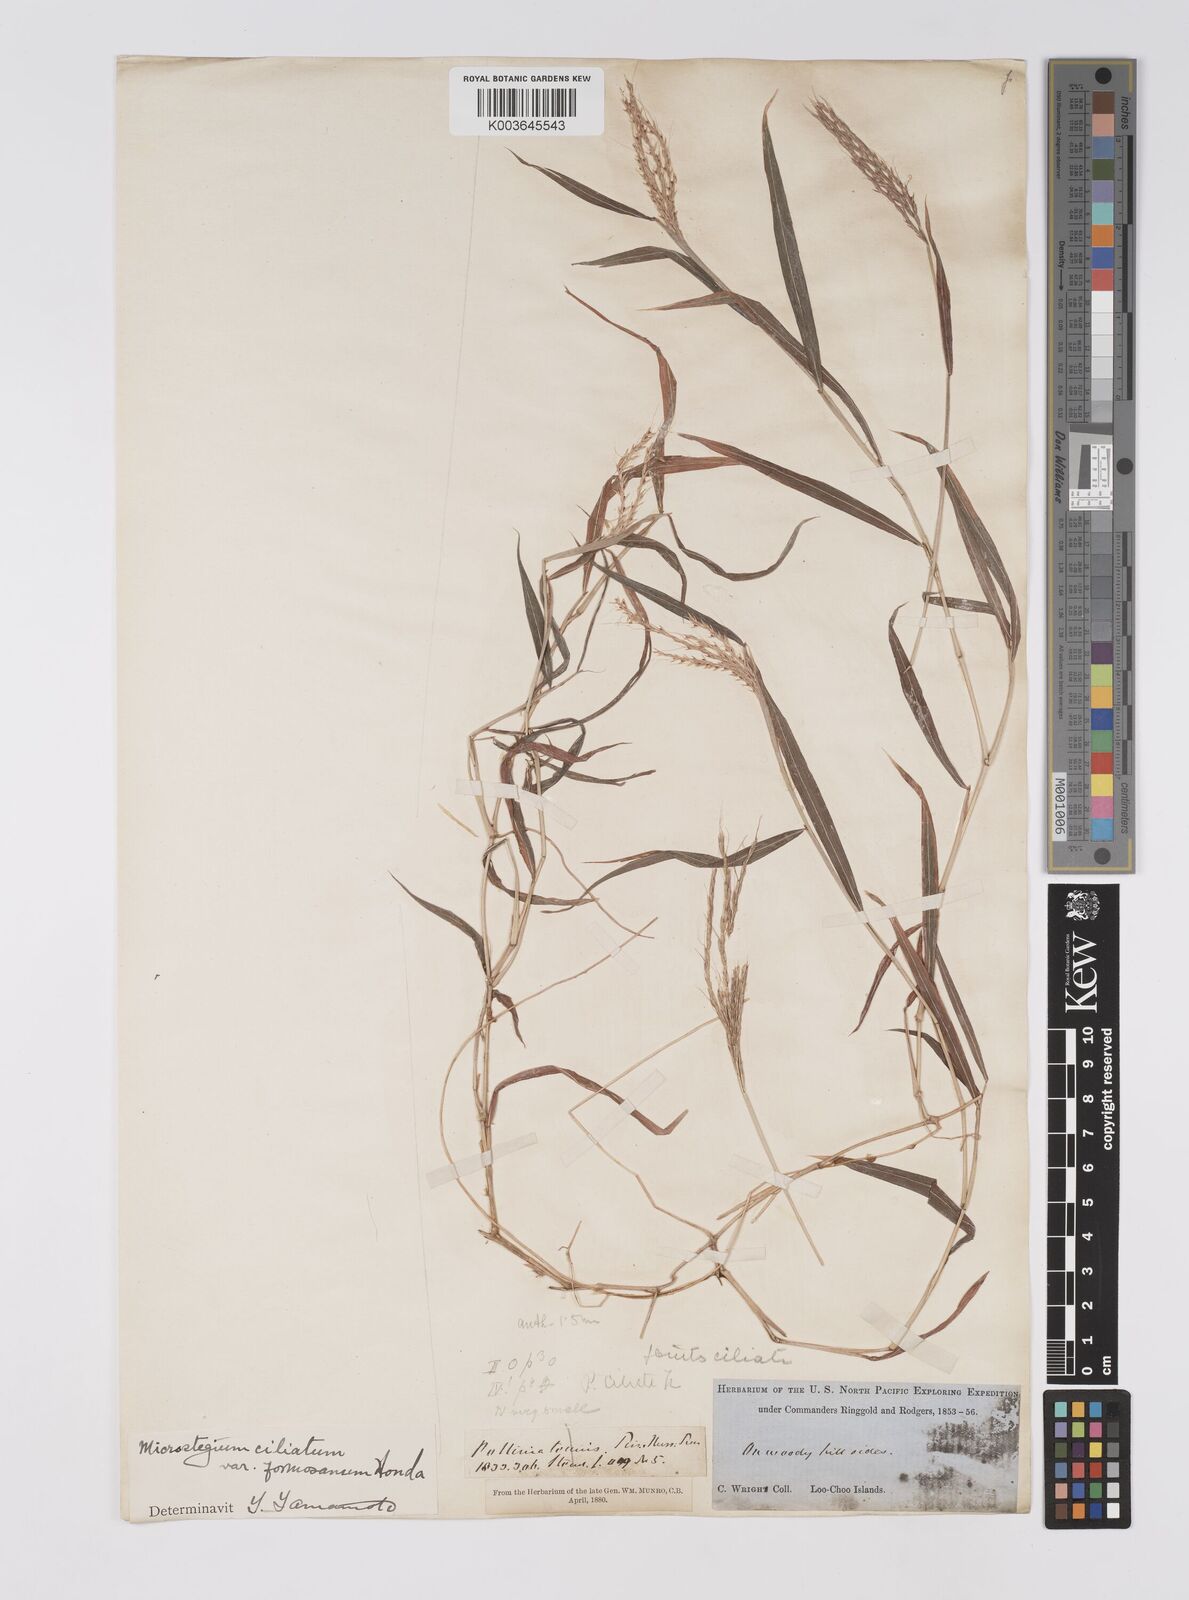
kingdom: Plantae
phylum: Tracheophyta
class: Liliopsida
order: Poales
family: Poaceae
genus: Microstegium
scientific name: Microstegium fasciculatum
